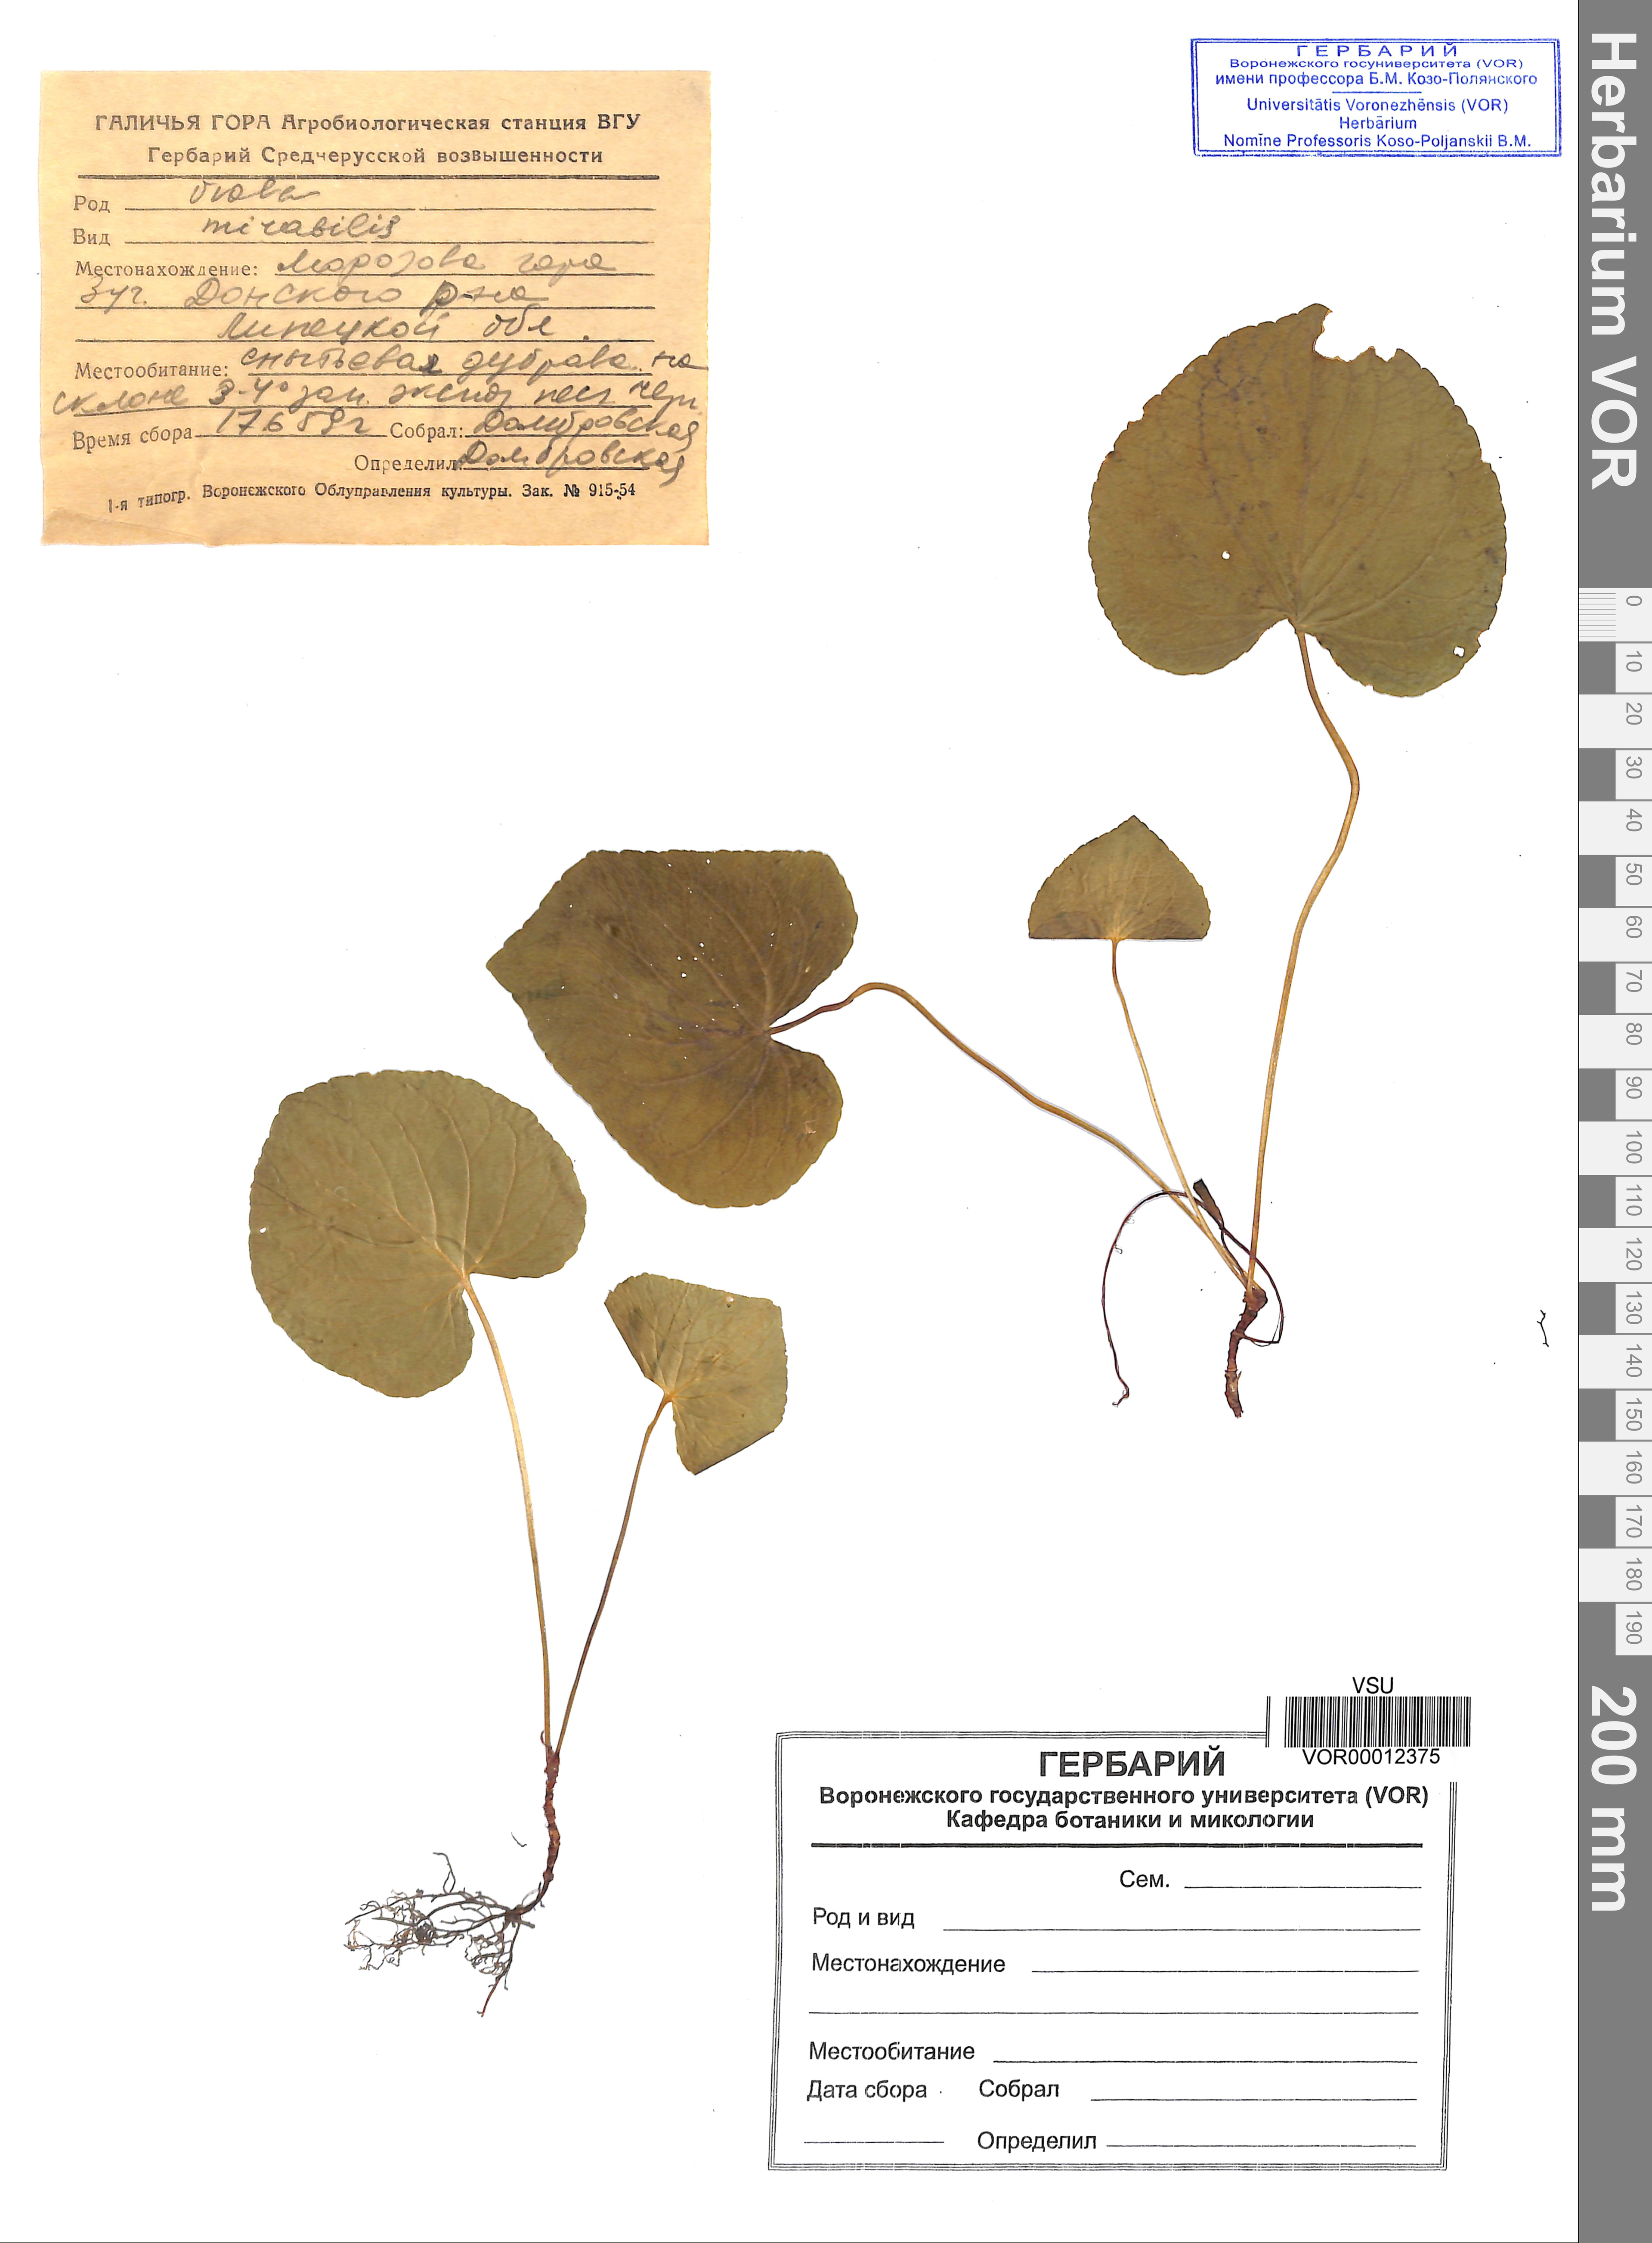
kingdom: Plantae
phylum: Tracheophyta
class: Magnoliopsida
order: Malpighiales
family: Violaceae
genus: Viola
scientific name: Viola mirabilis
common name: Wonder violet
